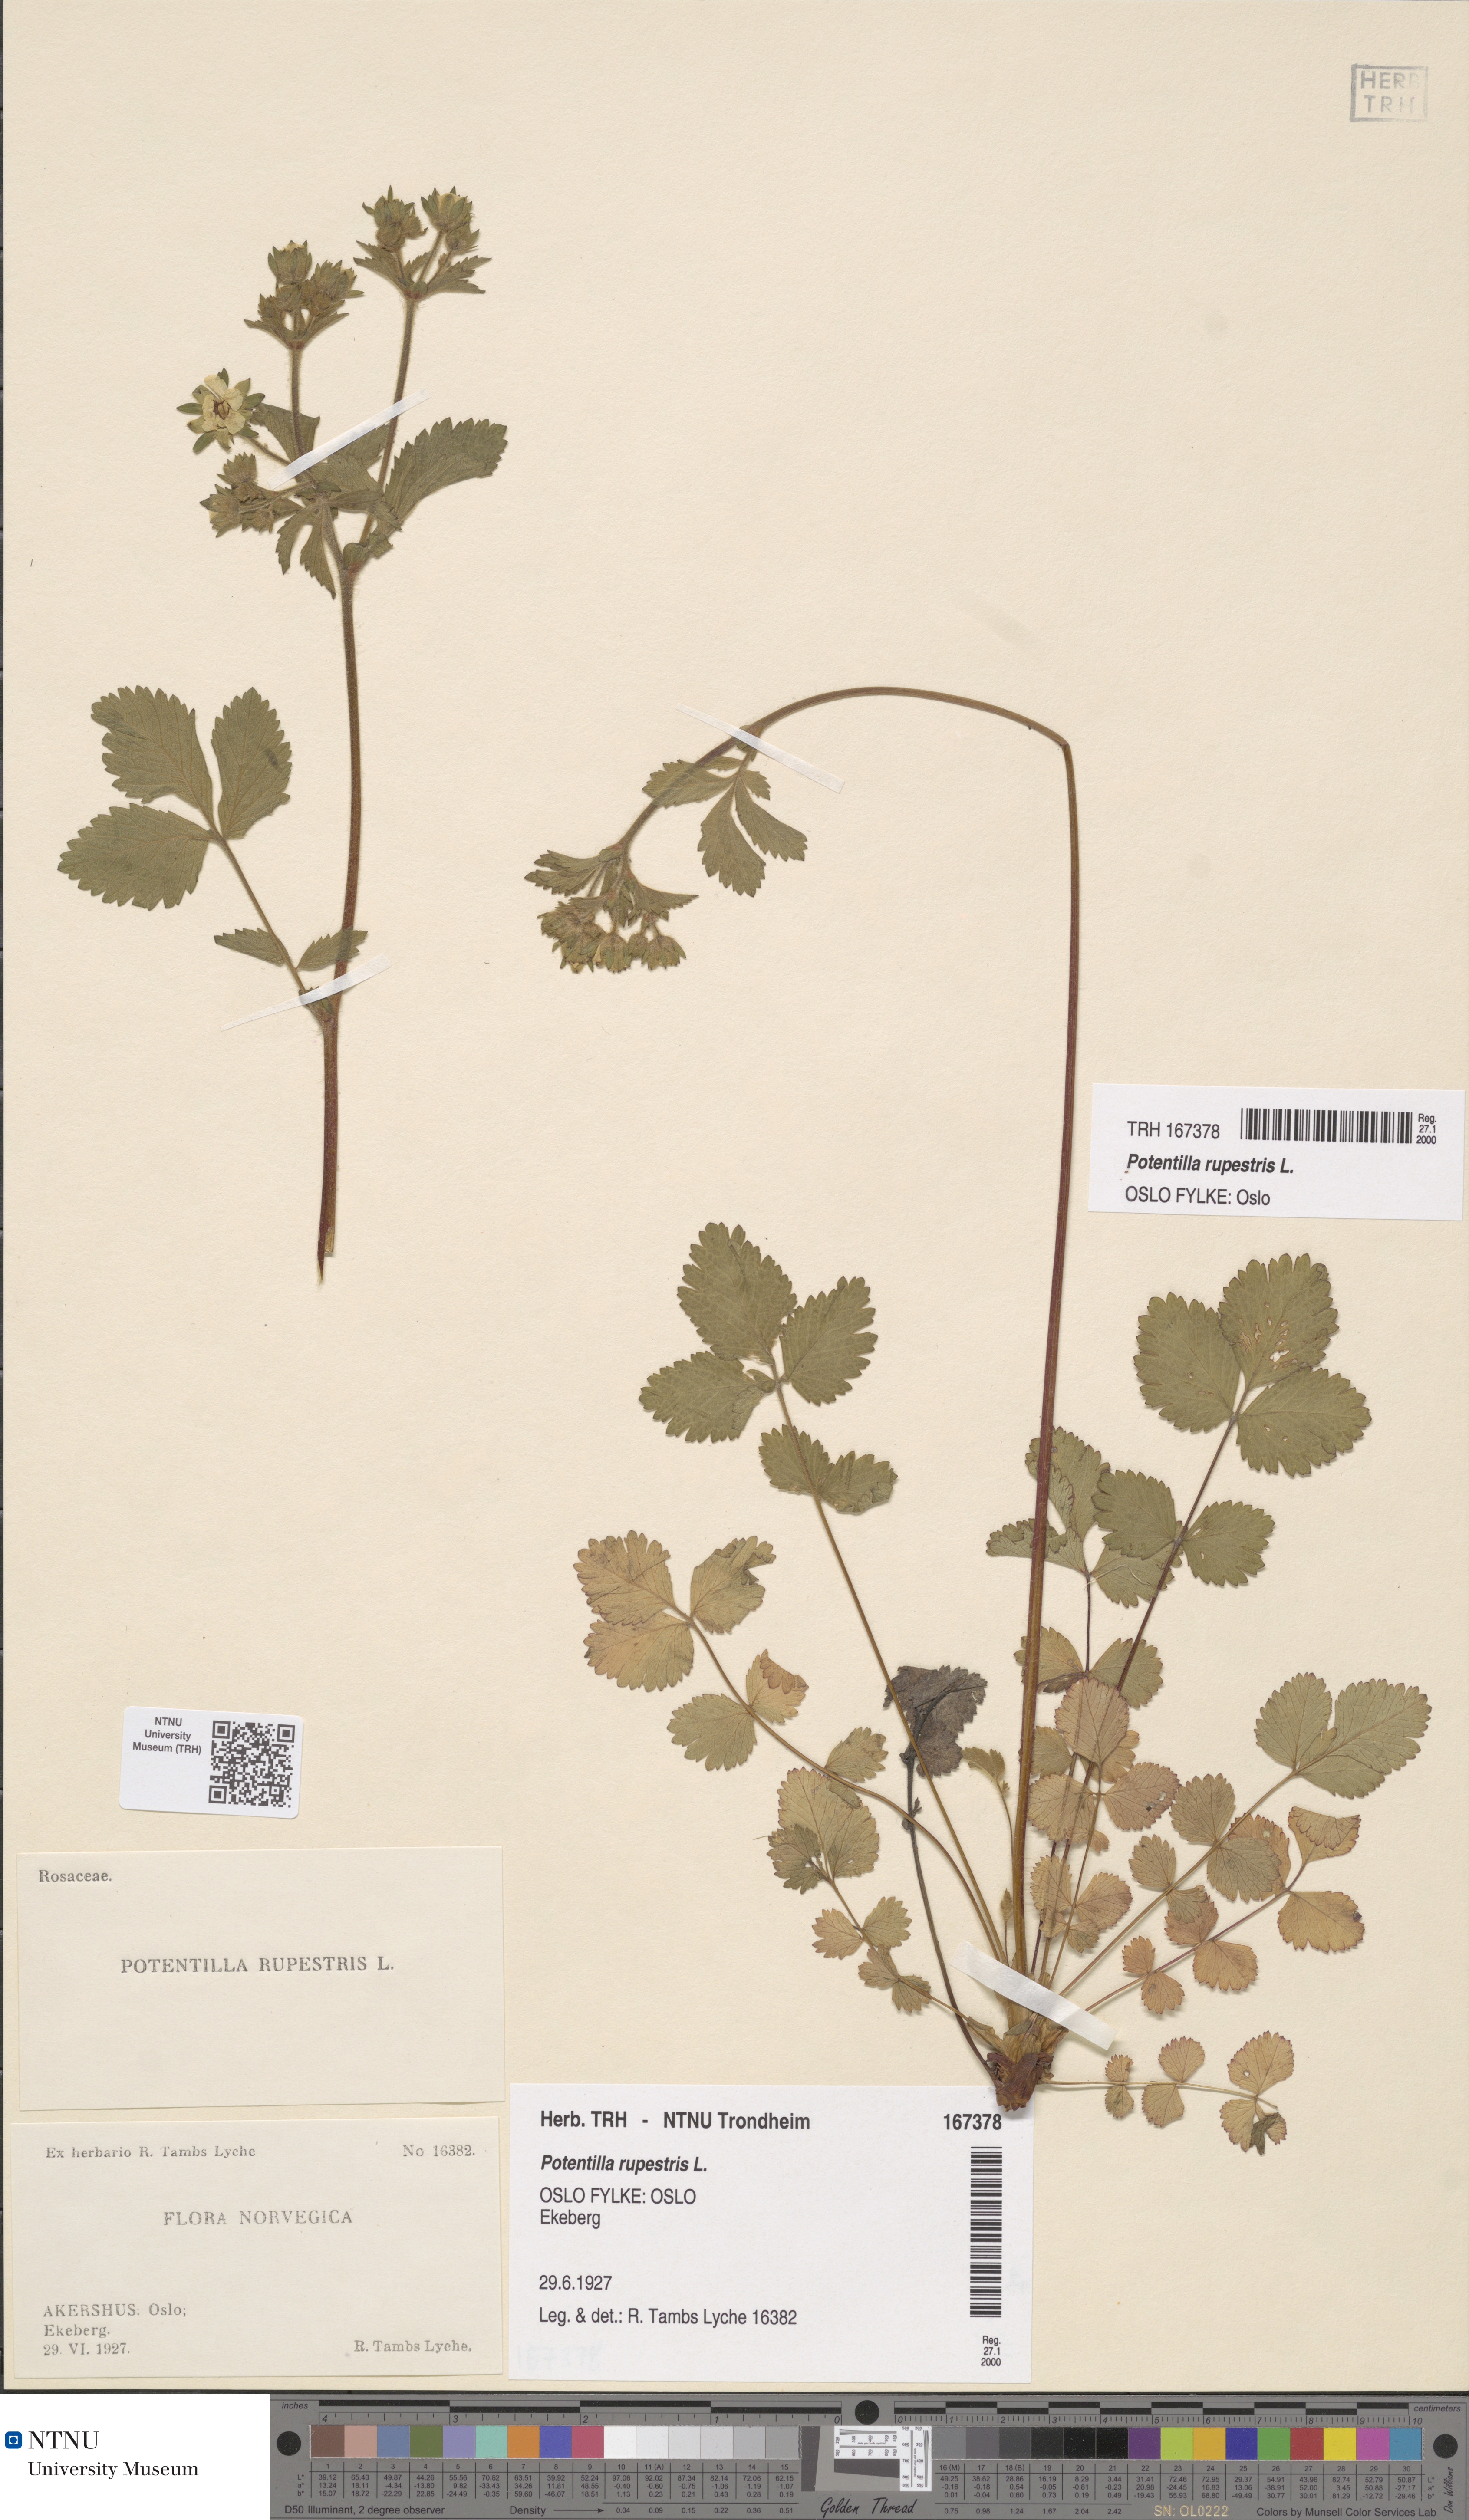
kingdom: Plantae
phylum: Tracheophyta
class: Magnoliopsida
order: Rosales
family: Rosaceae
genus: Drymocallis
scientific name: Drymocallis rupestris
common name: Rock cinquefoil
